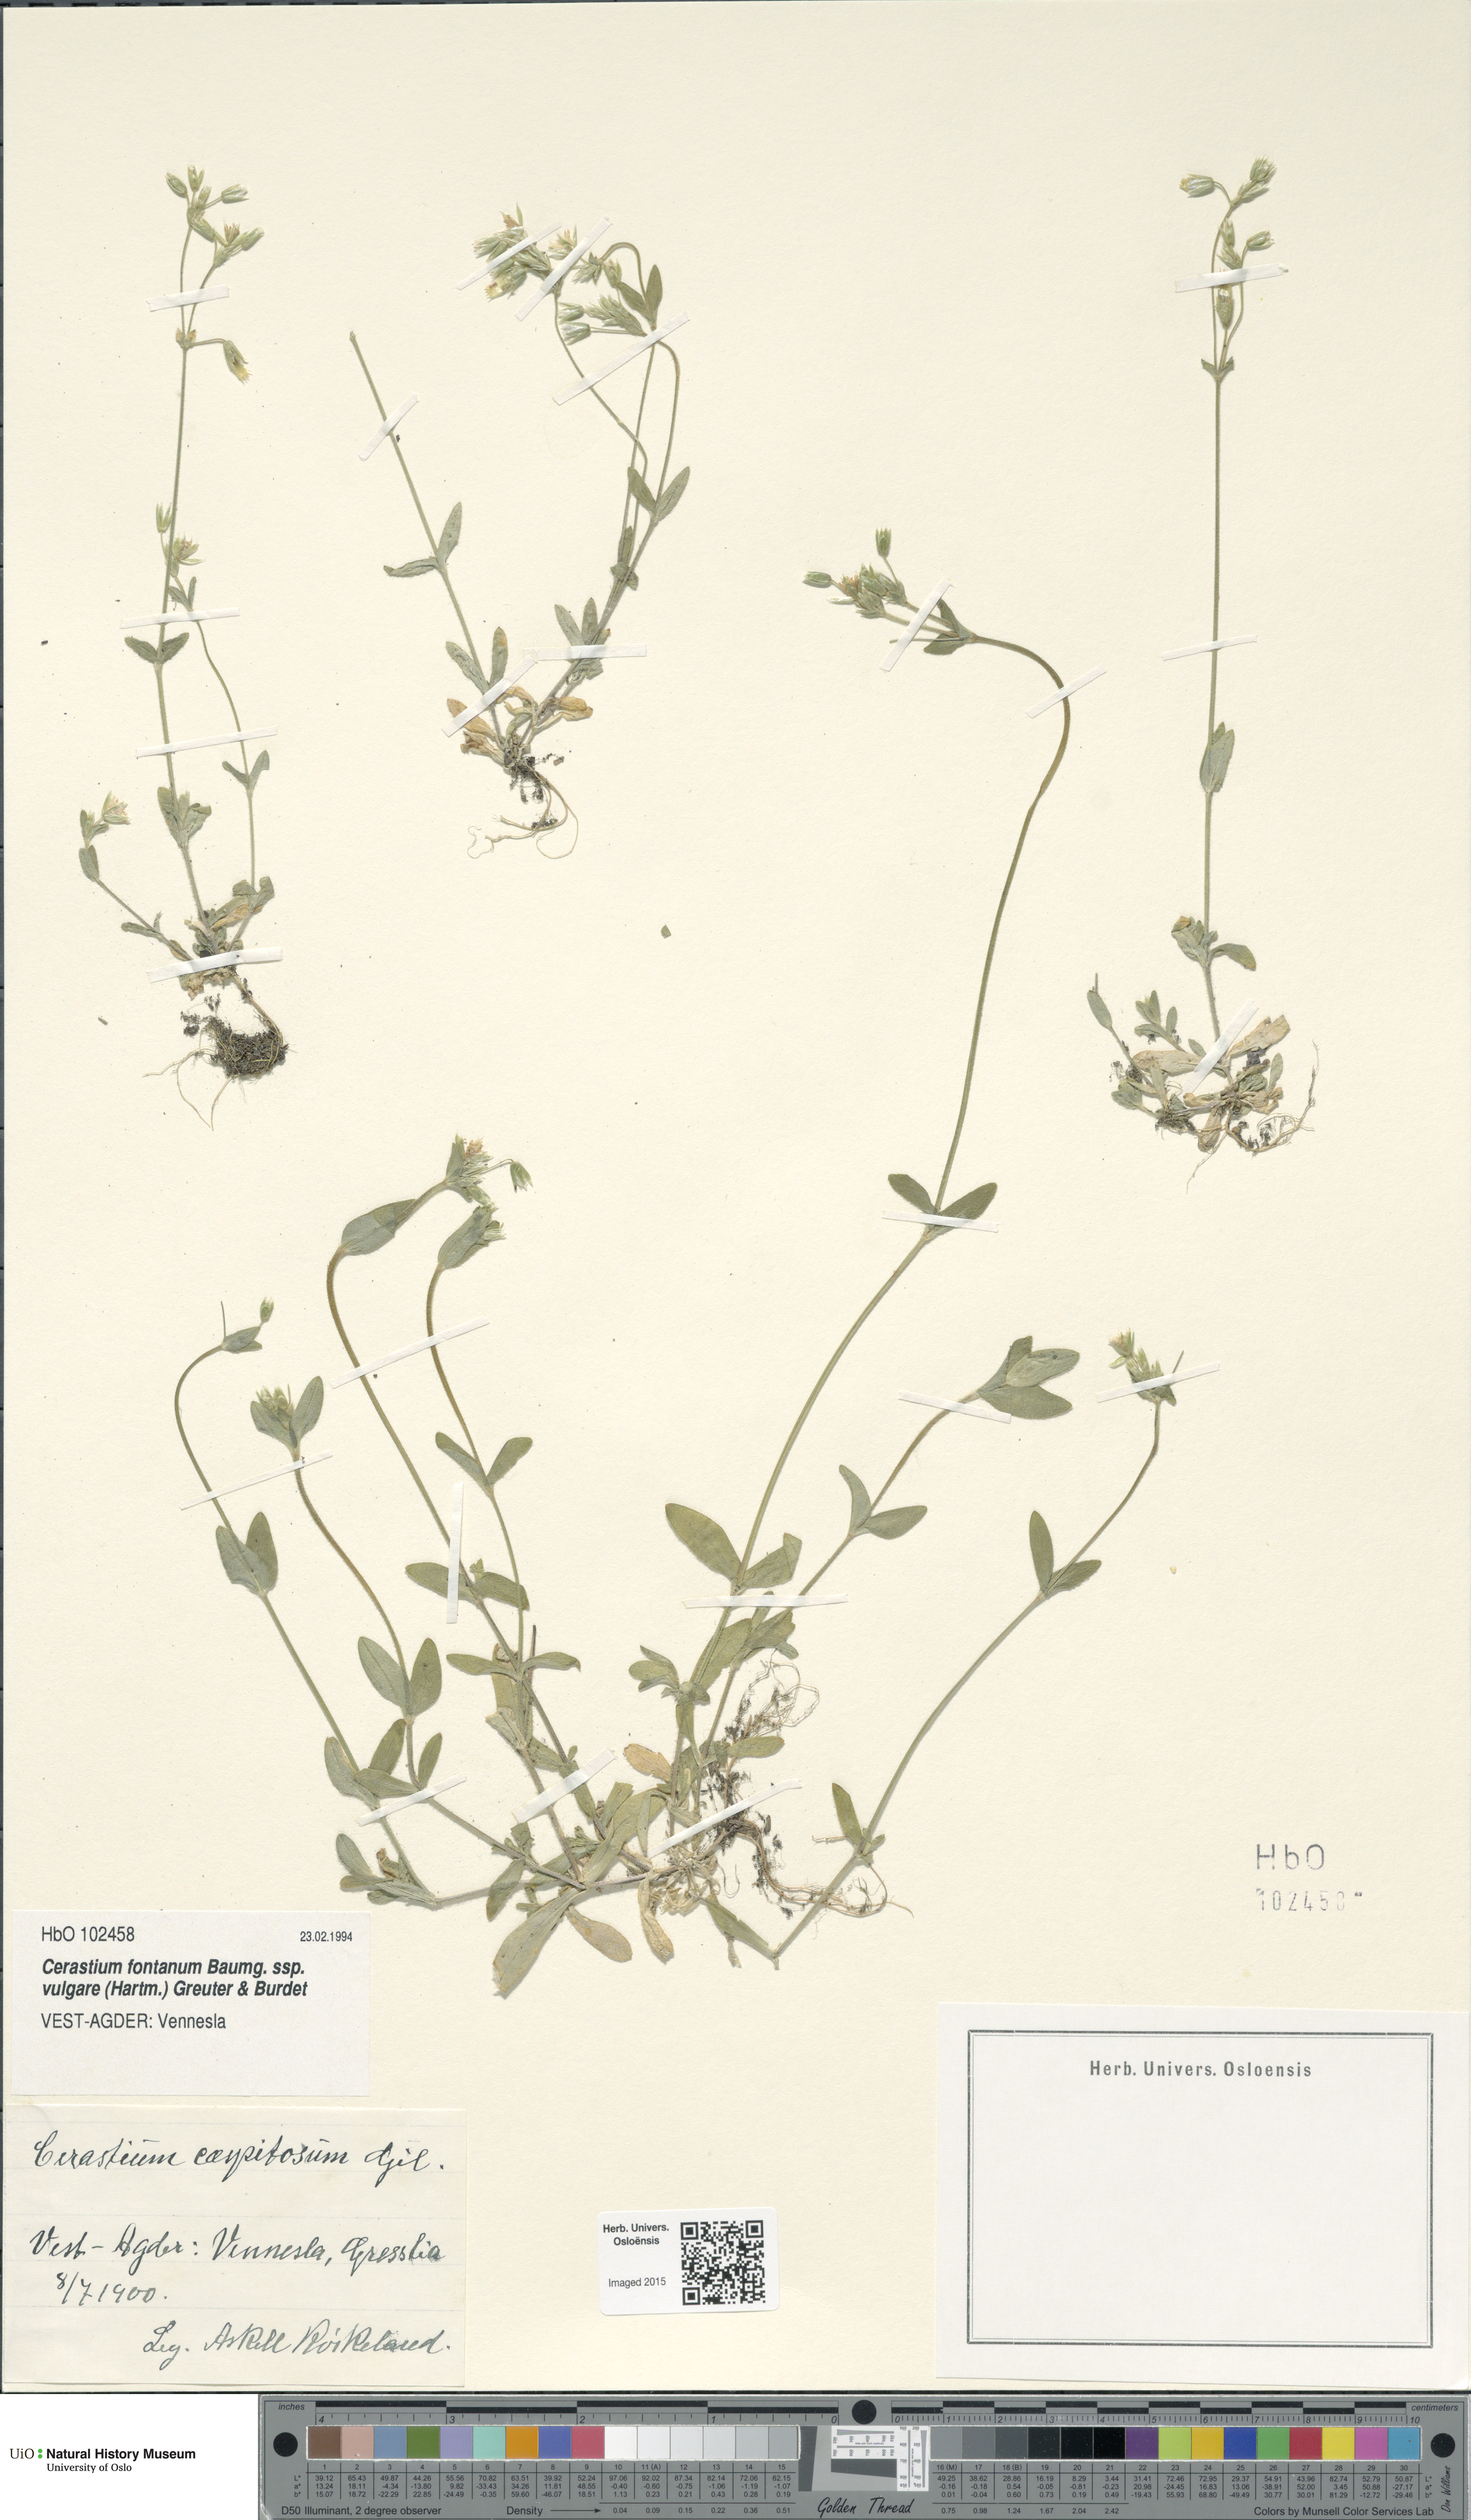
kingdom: Plantae
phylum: Tracheophyta
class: Magnoliopsida
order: Caryophyllales
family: Caryophyllaceae
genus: Cerastium
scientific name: Cerastium holosteoides
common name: Big chickweed
